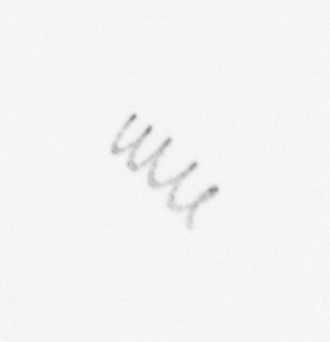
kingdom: Chromista
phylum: Ochrophyta
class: Bacillariophyceae
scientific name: Bacillariophyceae
